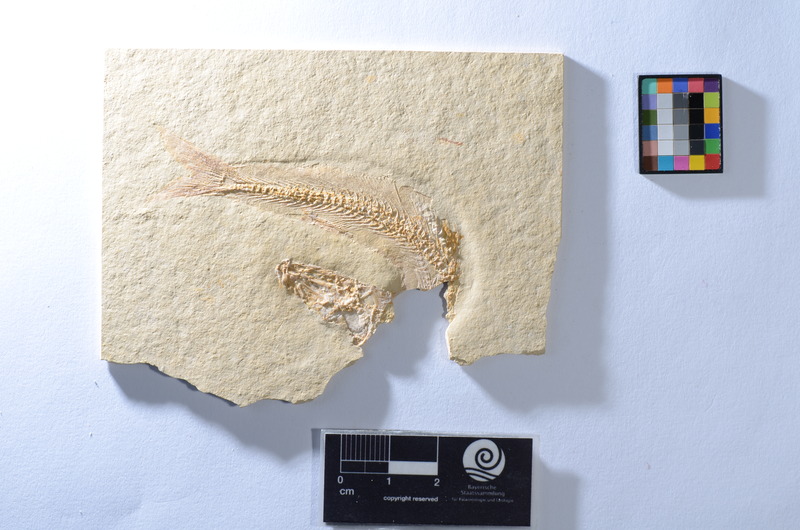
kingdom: Animalia
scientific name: Animalia
